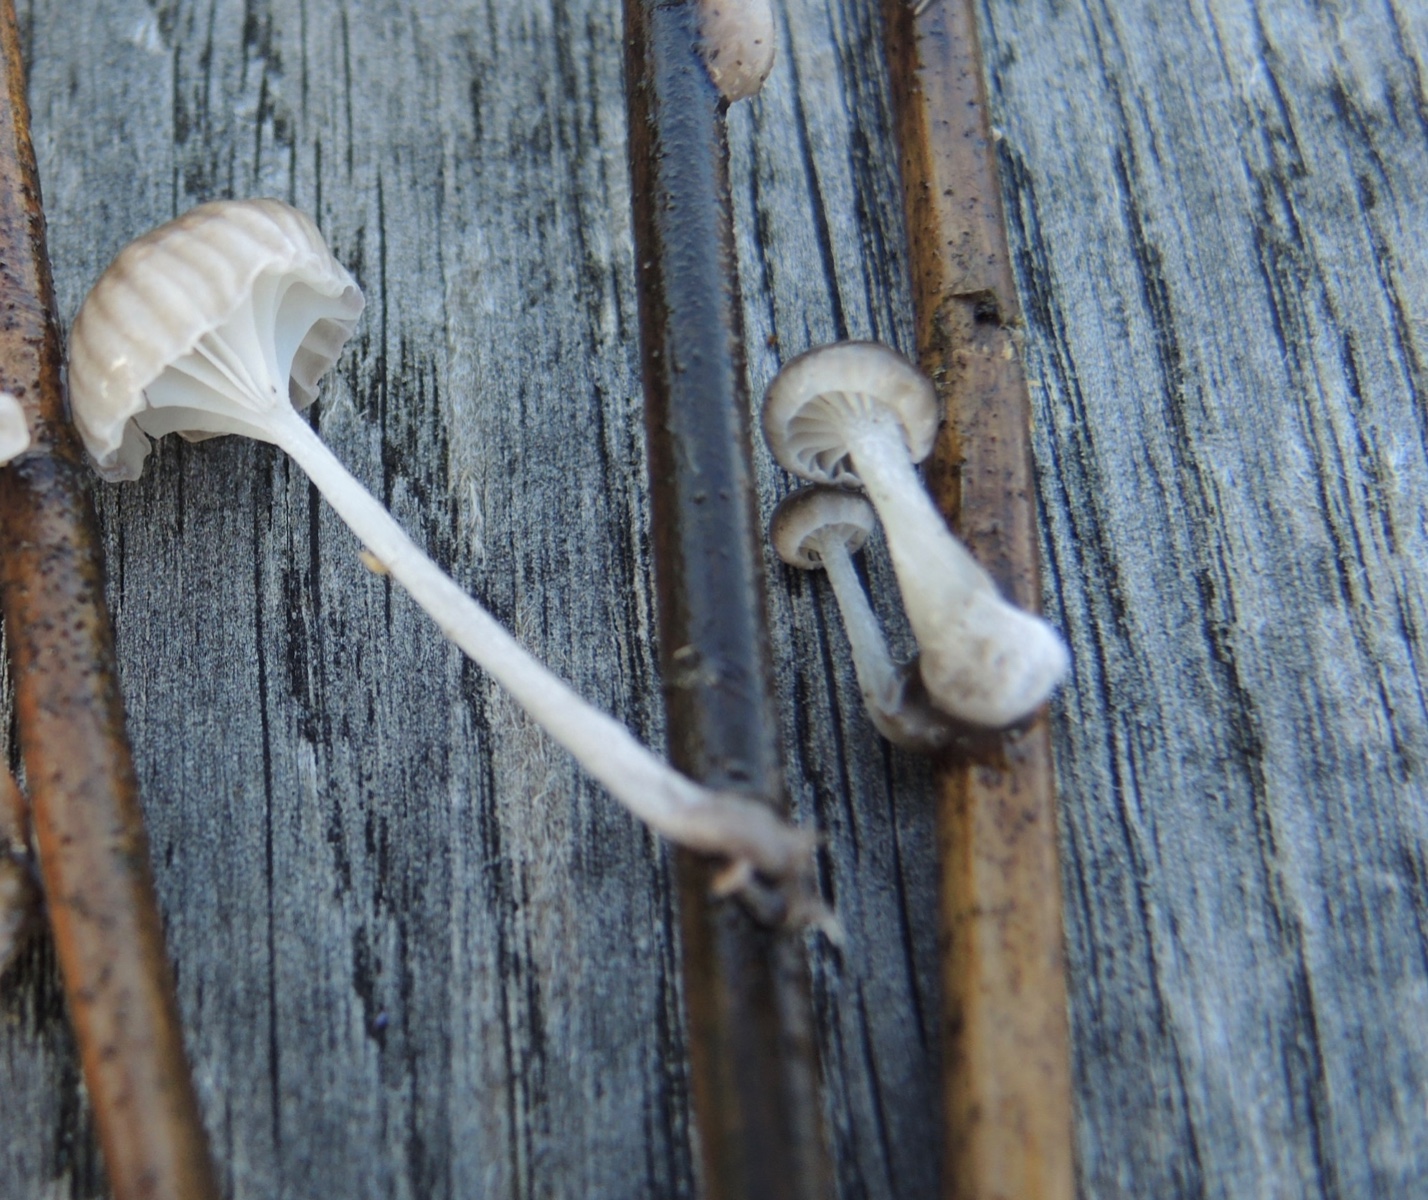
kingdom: Fungi
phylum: Basidiomycota
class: Agaricomycetes
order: Agaricales
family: Mycenaceae
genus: Mycena
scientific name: Mycena belliae
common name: tagrørs-huesvamp
